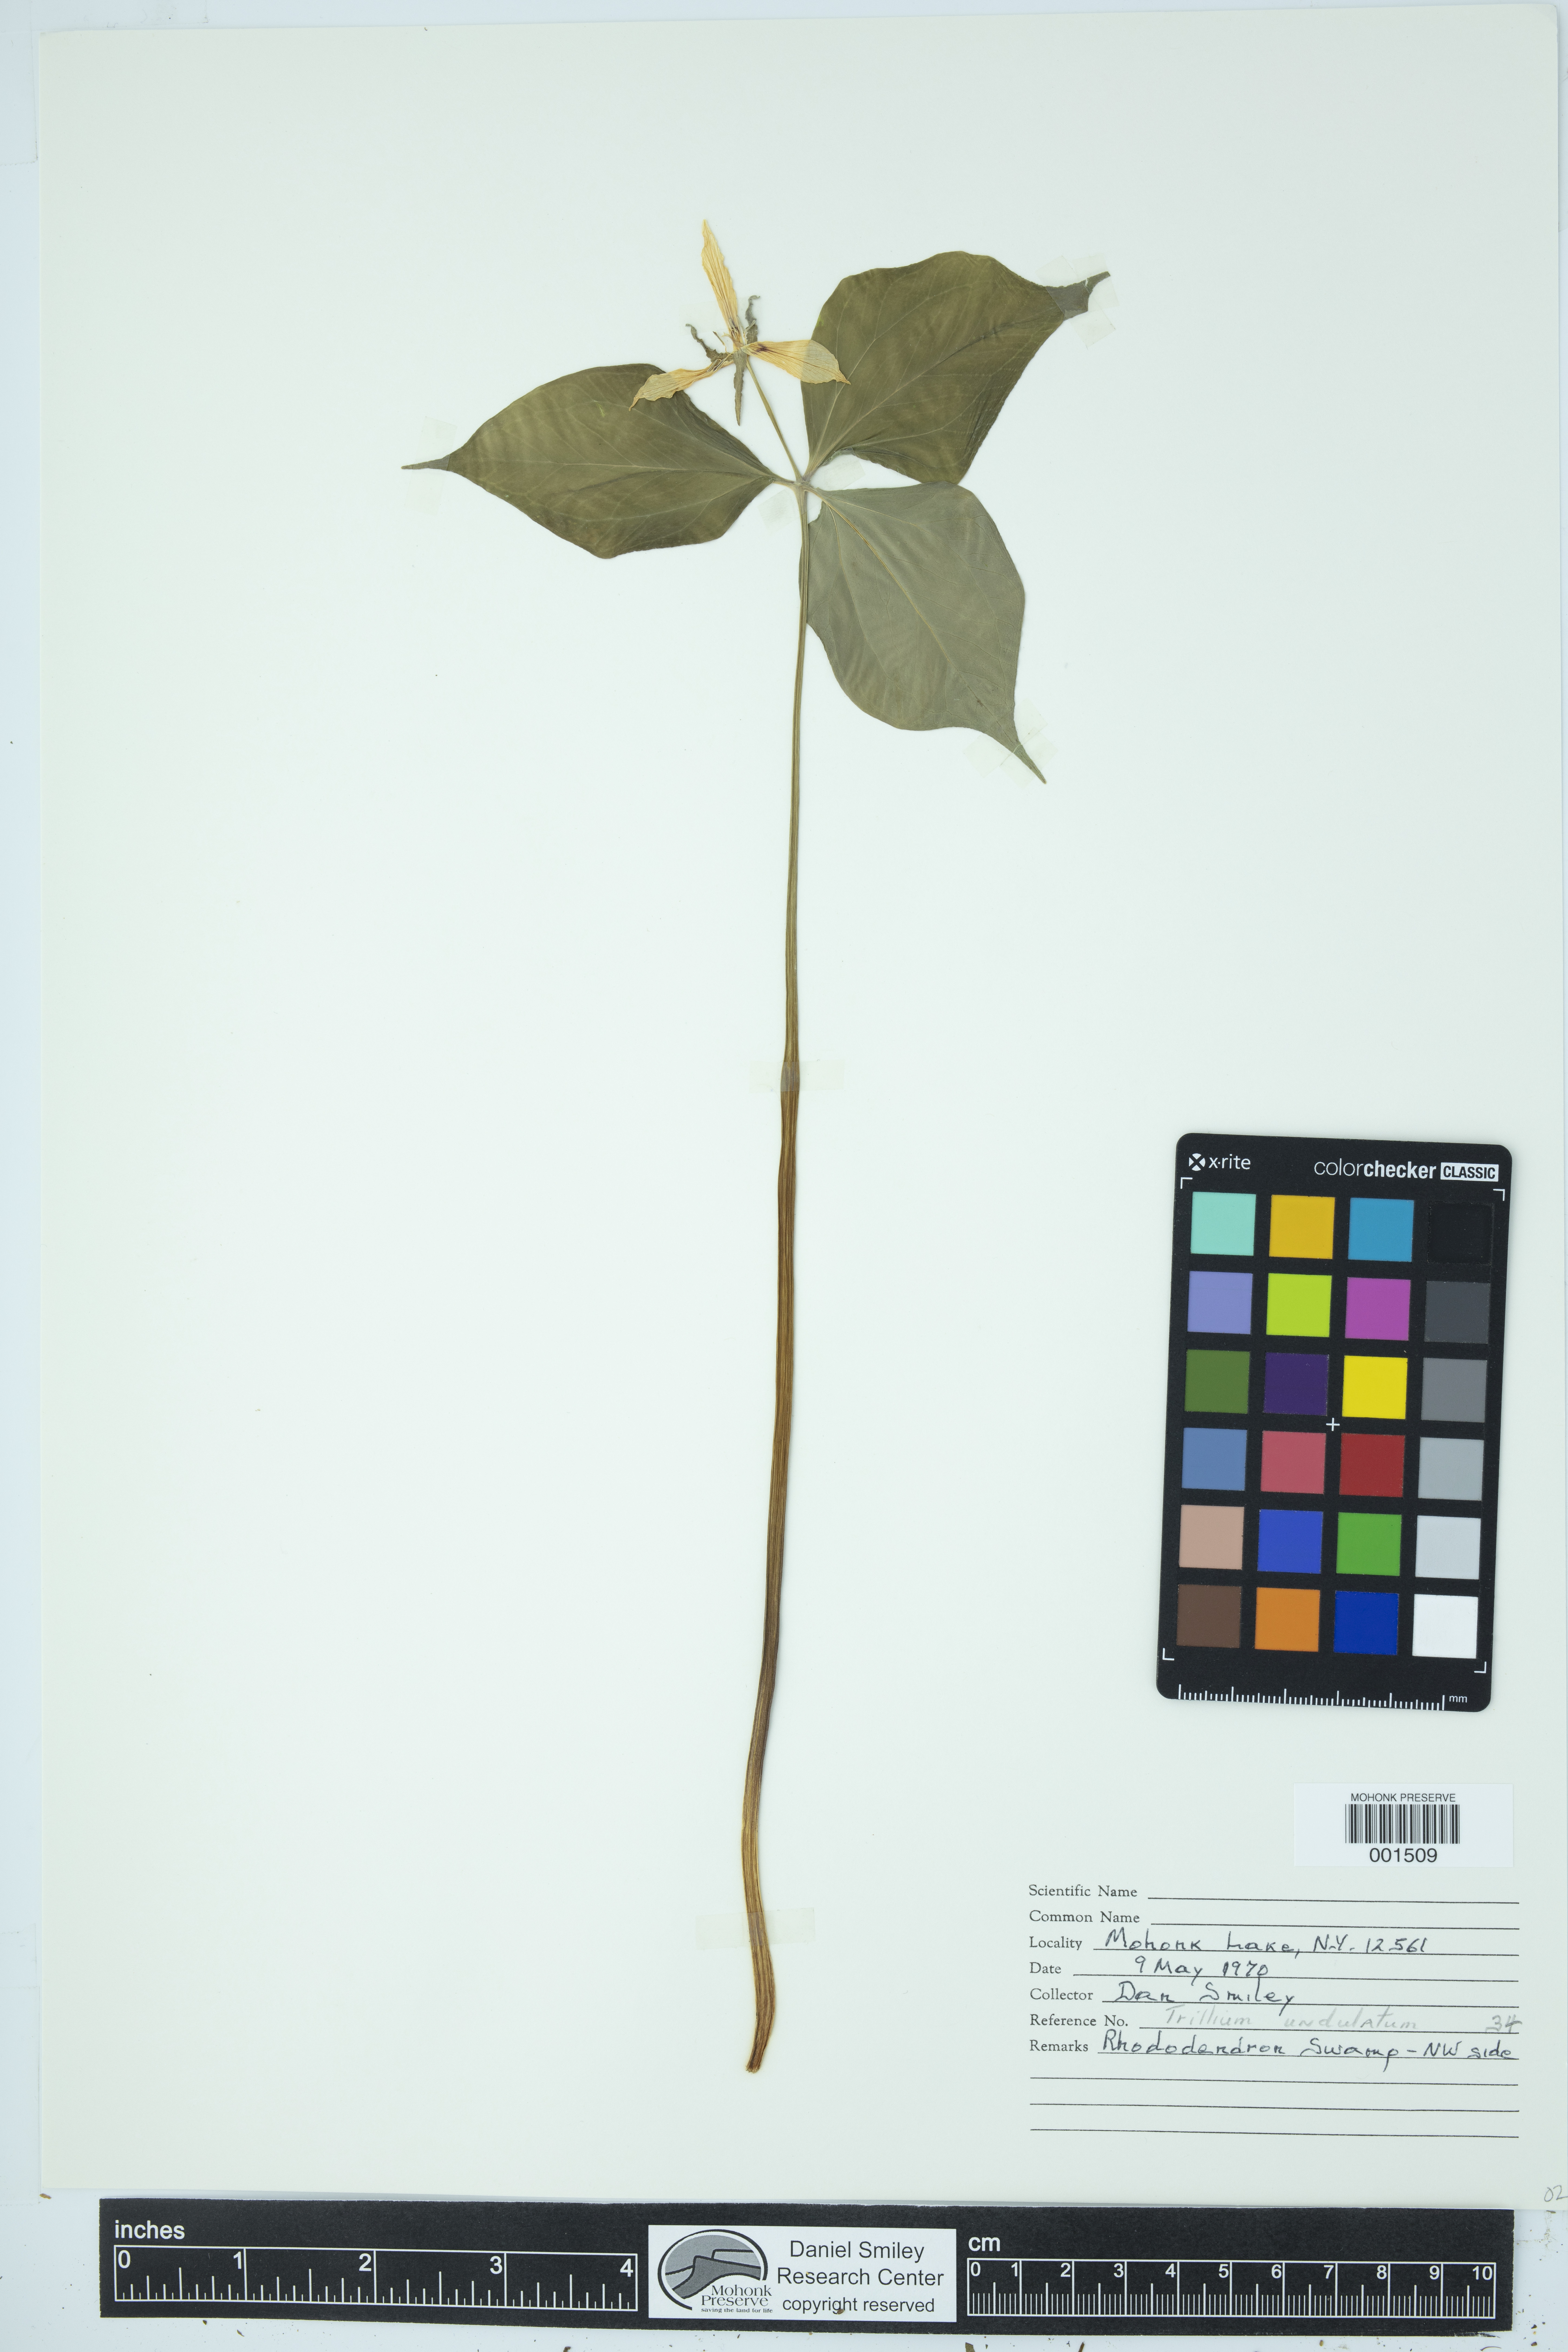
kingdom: Plantae
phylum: Tracheophyta
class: Liliopsida
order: Liliales
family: Melanthiaceae
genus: Trillium
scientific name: Trillium undulatum
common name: Paint trillium
